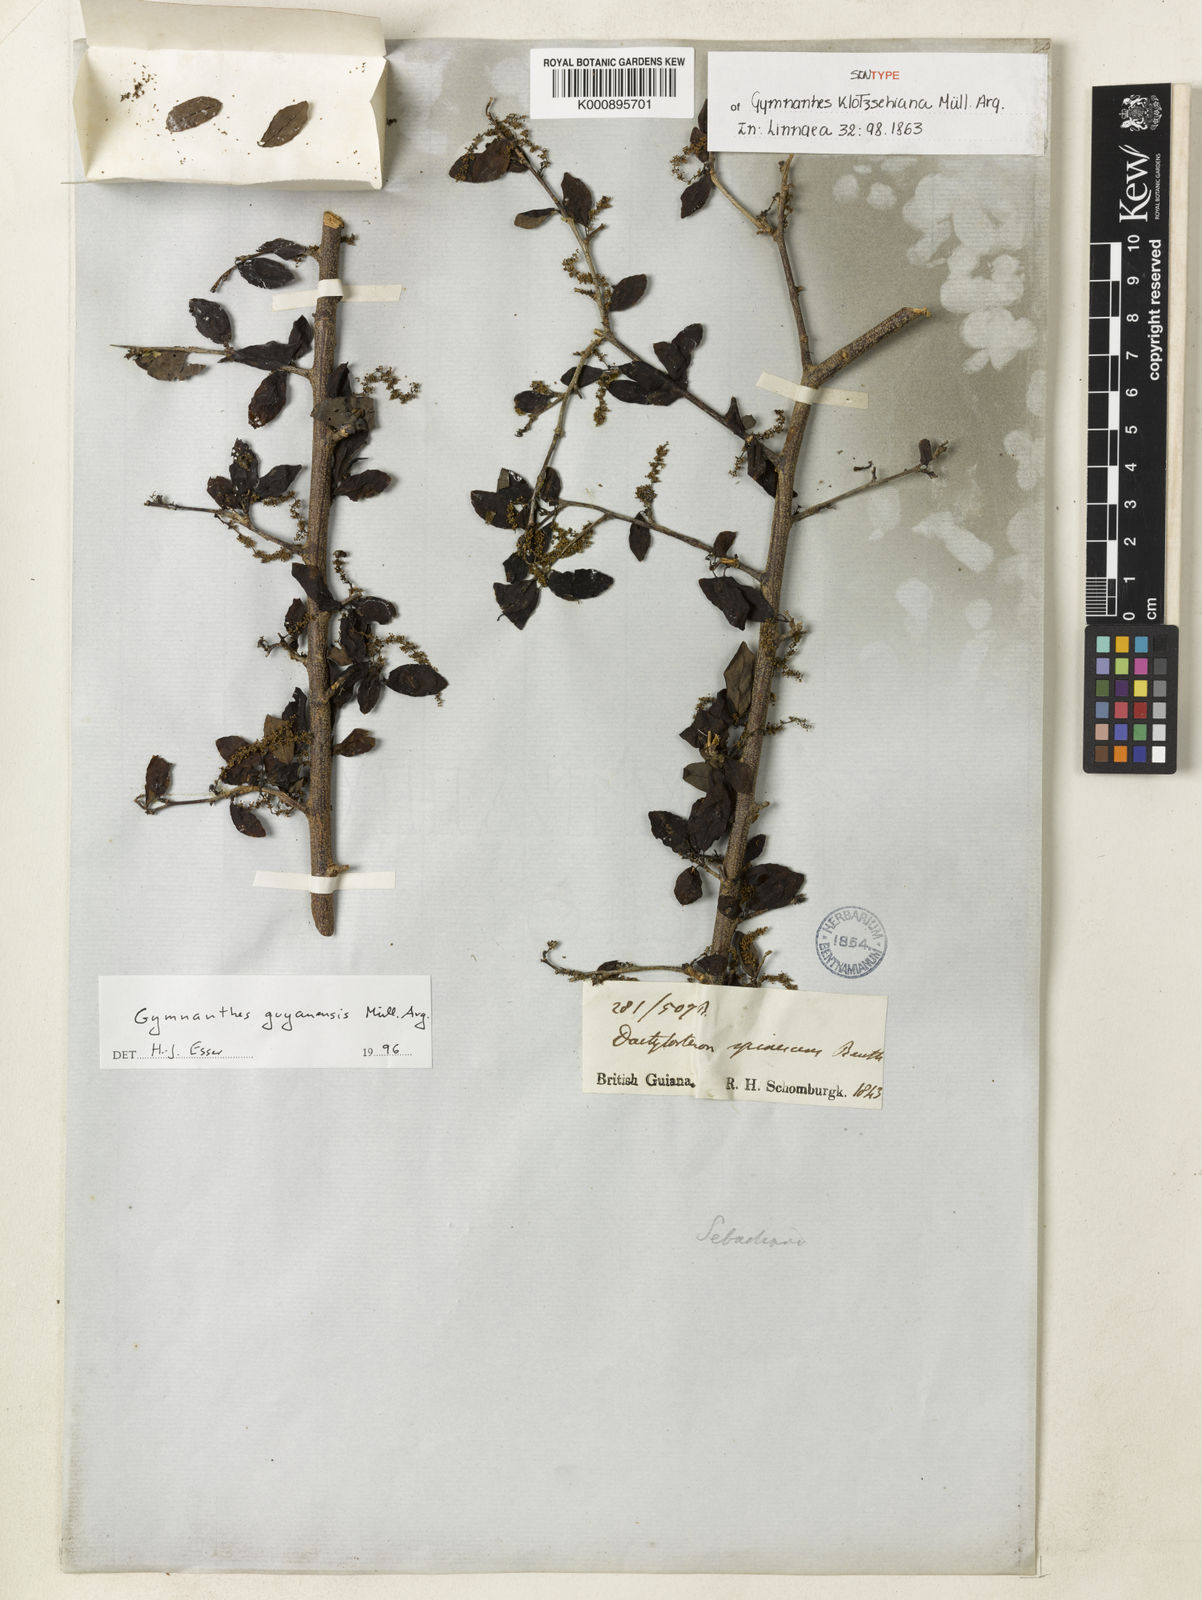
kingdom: Plantae
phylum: Tracheophyta
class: Magnoliopsida
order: Malpighiales
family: Euphorbiaceae
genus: Gymnanthes
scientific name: Gymnanthes
